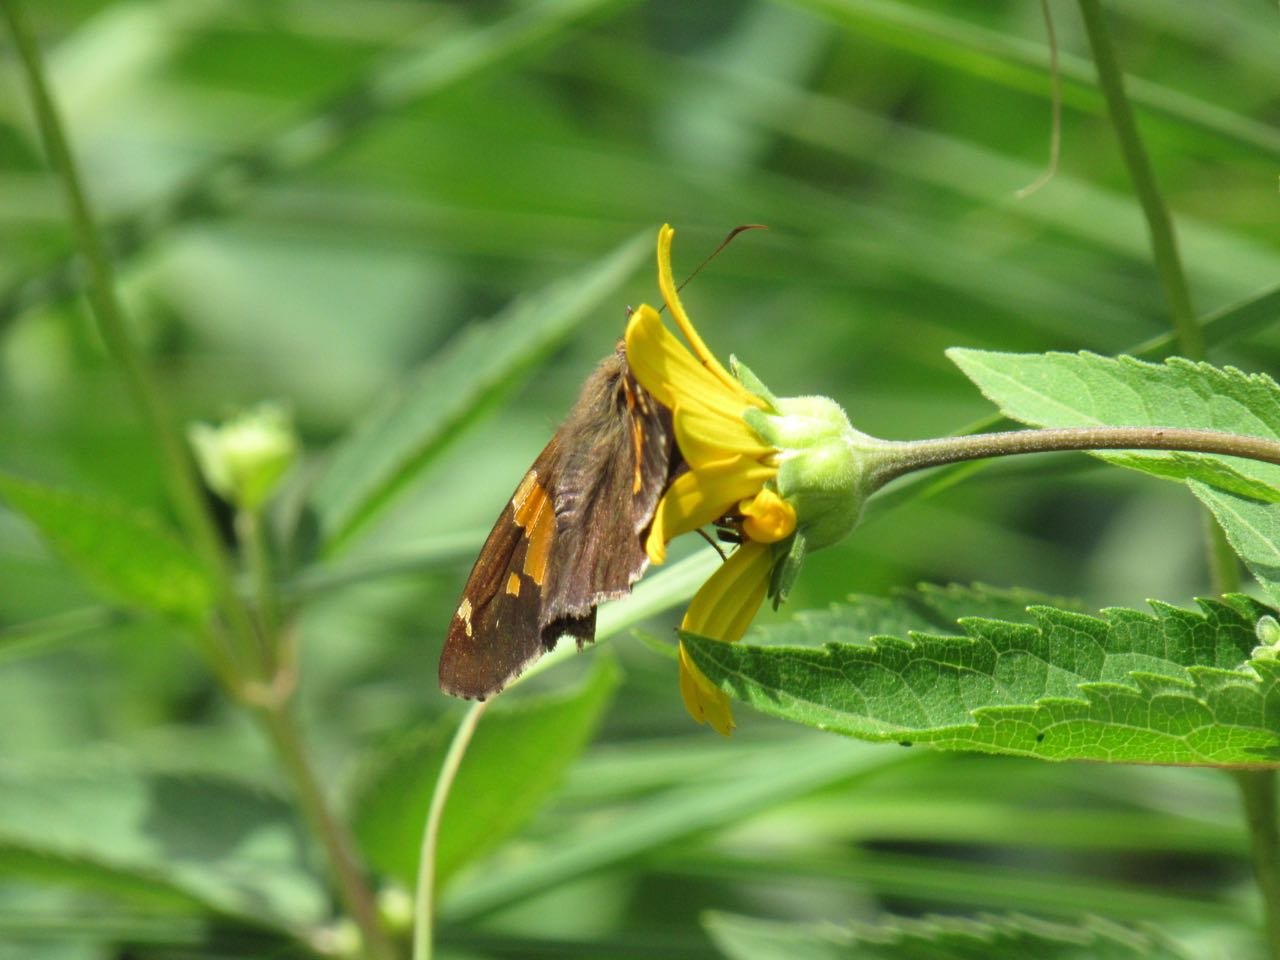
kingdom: Animalia
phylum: Arthropoda
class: Insecta
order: Lepidoptera
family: Hesperiidae
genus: Epargyreus
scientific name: Epargyreus clarus
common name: Silver-spotted Skipper
